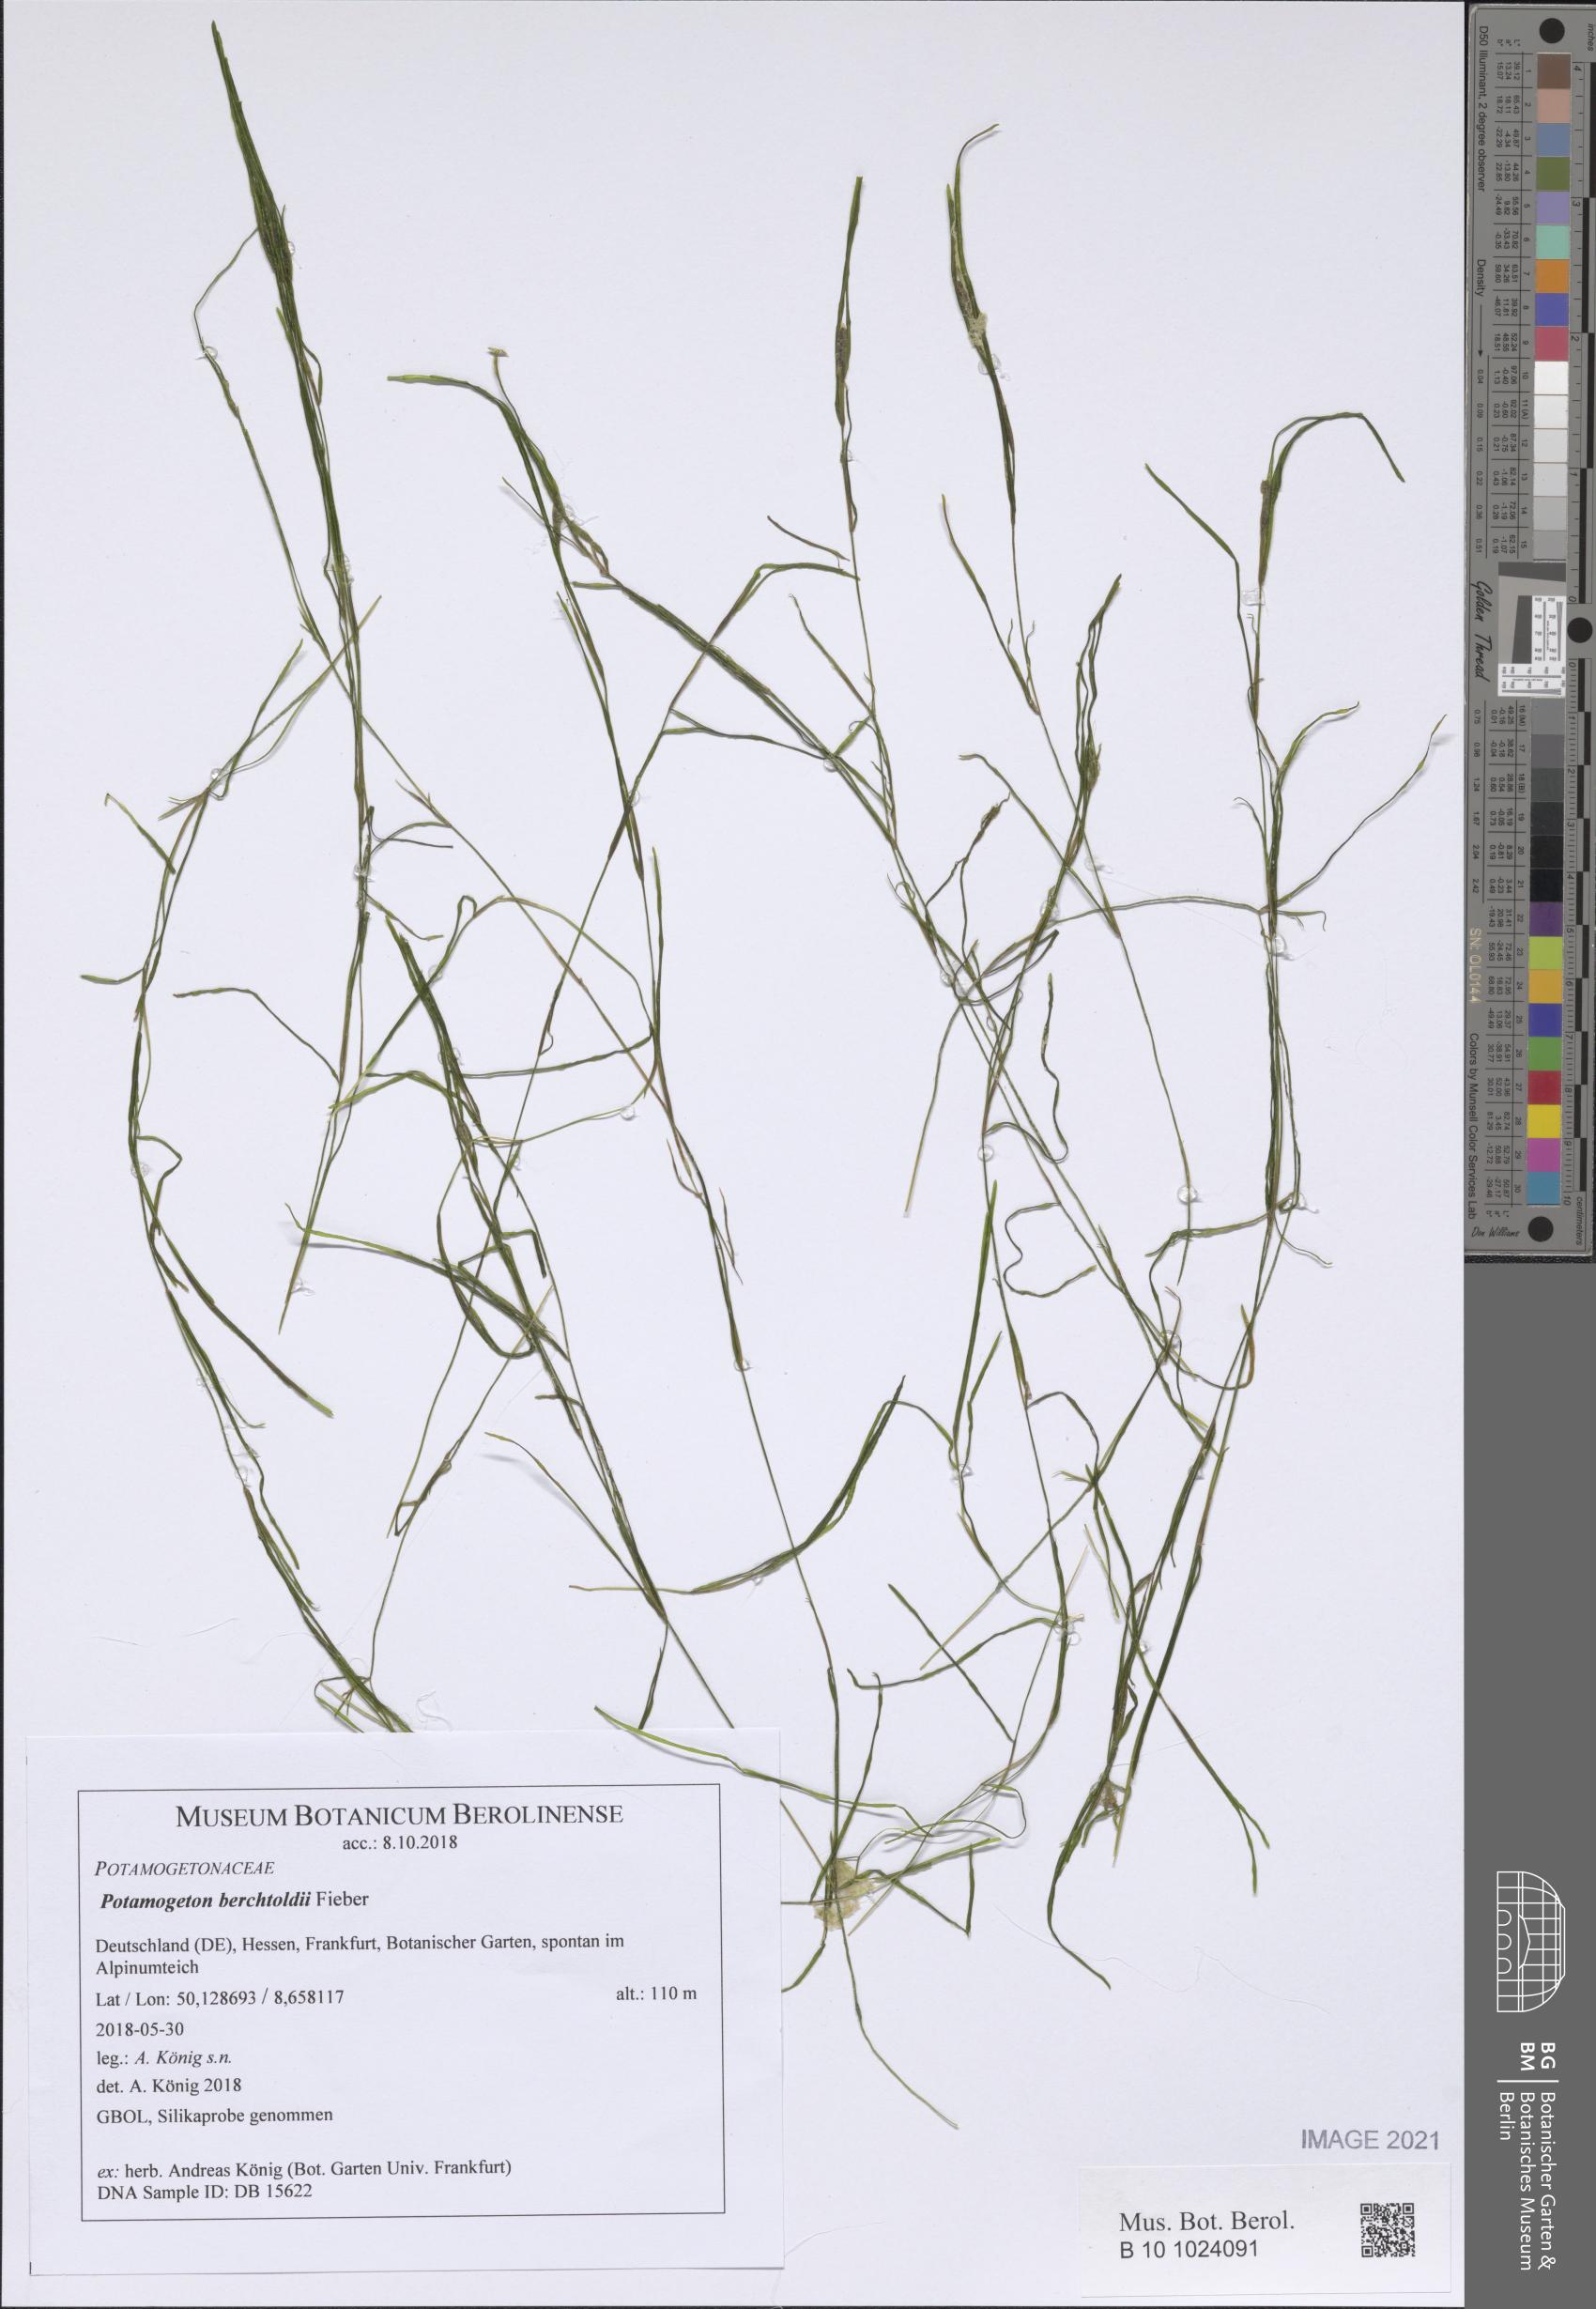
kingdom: Plantae
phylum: Tracheophyta
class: Liliopsida
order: Alismatales
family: Potamogetonaceae
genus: Potamogeton
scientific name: Potamogeton berchtoldii
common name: Small pondweed
